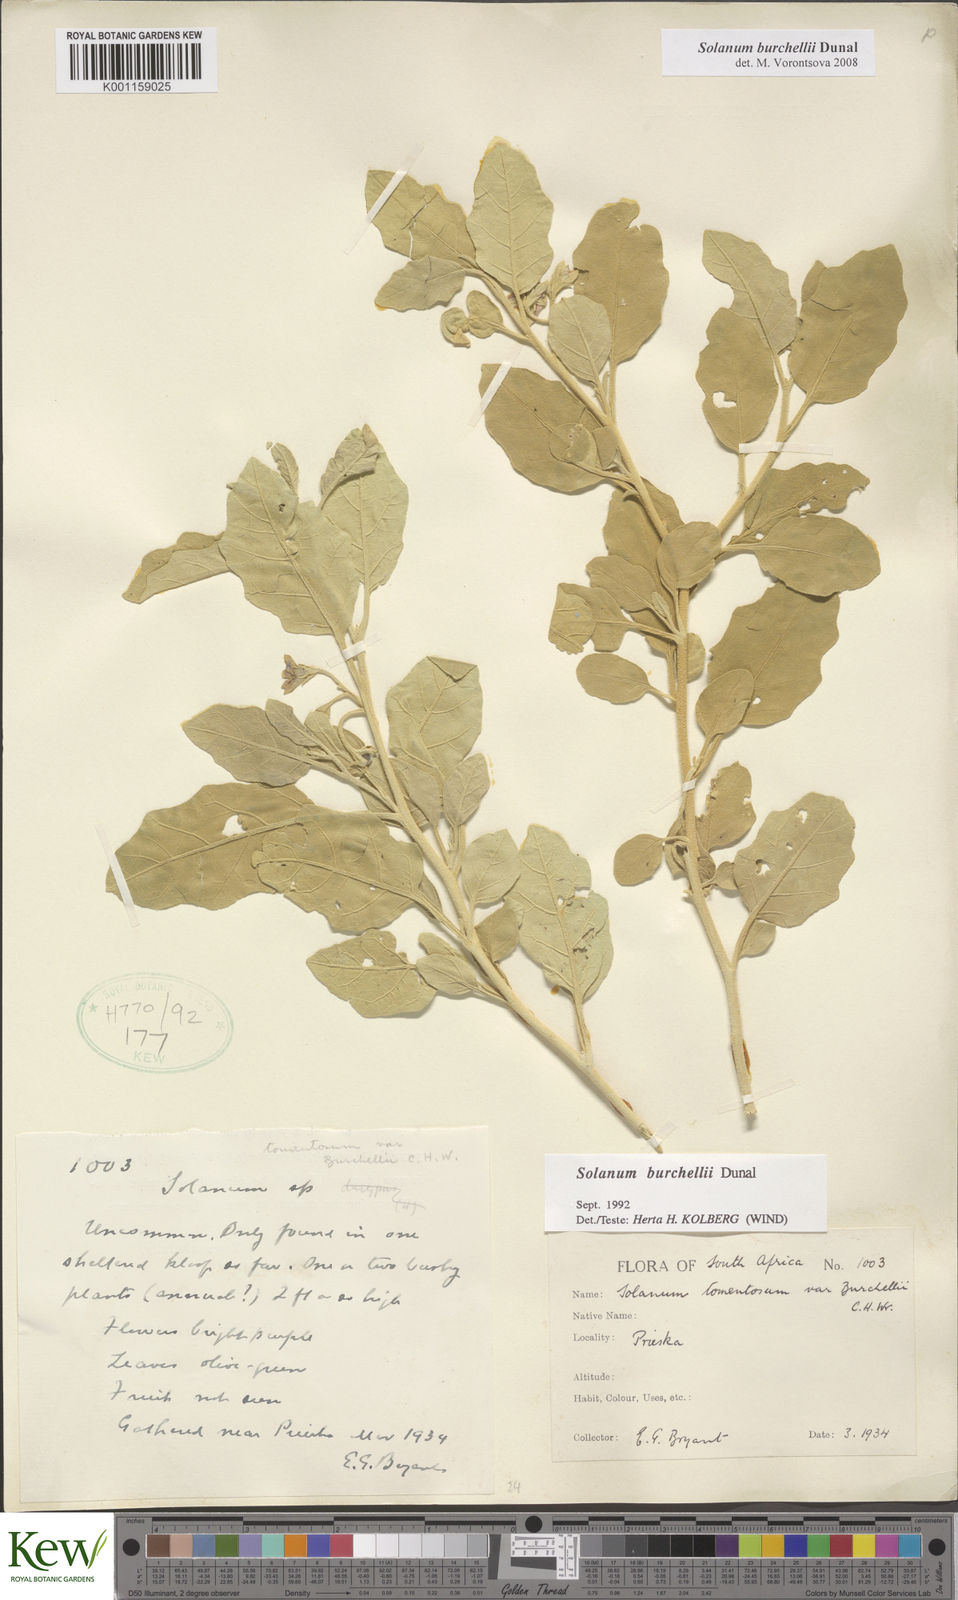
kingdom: Plantae
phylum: Tracheophyta
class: Magnoliopsida
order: Solanales
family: Solanaceae
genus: Solanum
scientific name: Solanum burchellii
